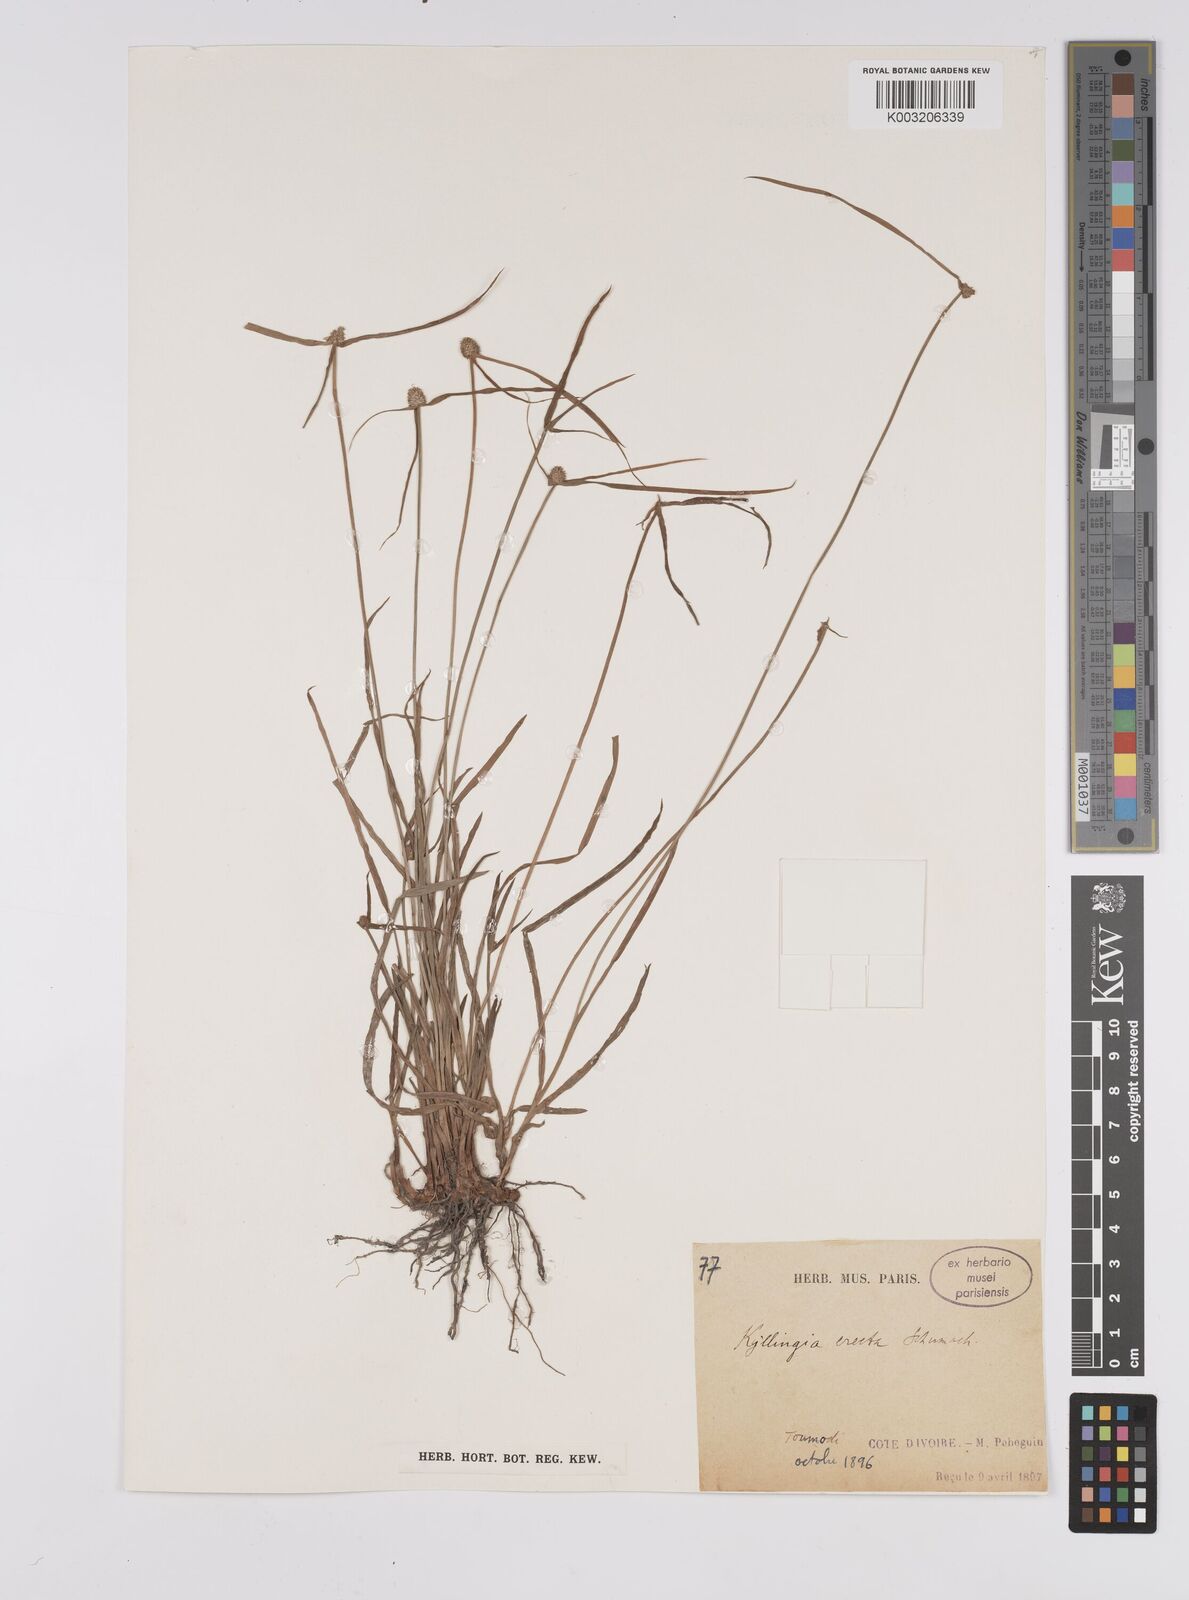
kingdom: Plantae
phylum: Tracheophyta
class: Liliopsida
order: Poales
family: Cyperaceae
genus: Cyperus
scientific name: Cyperus erectus
